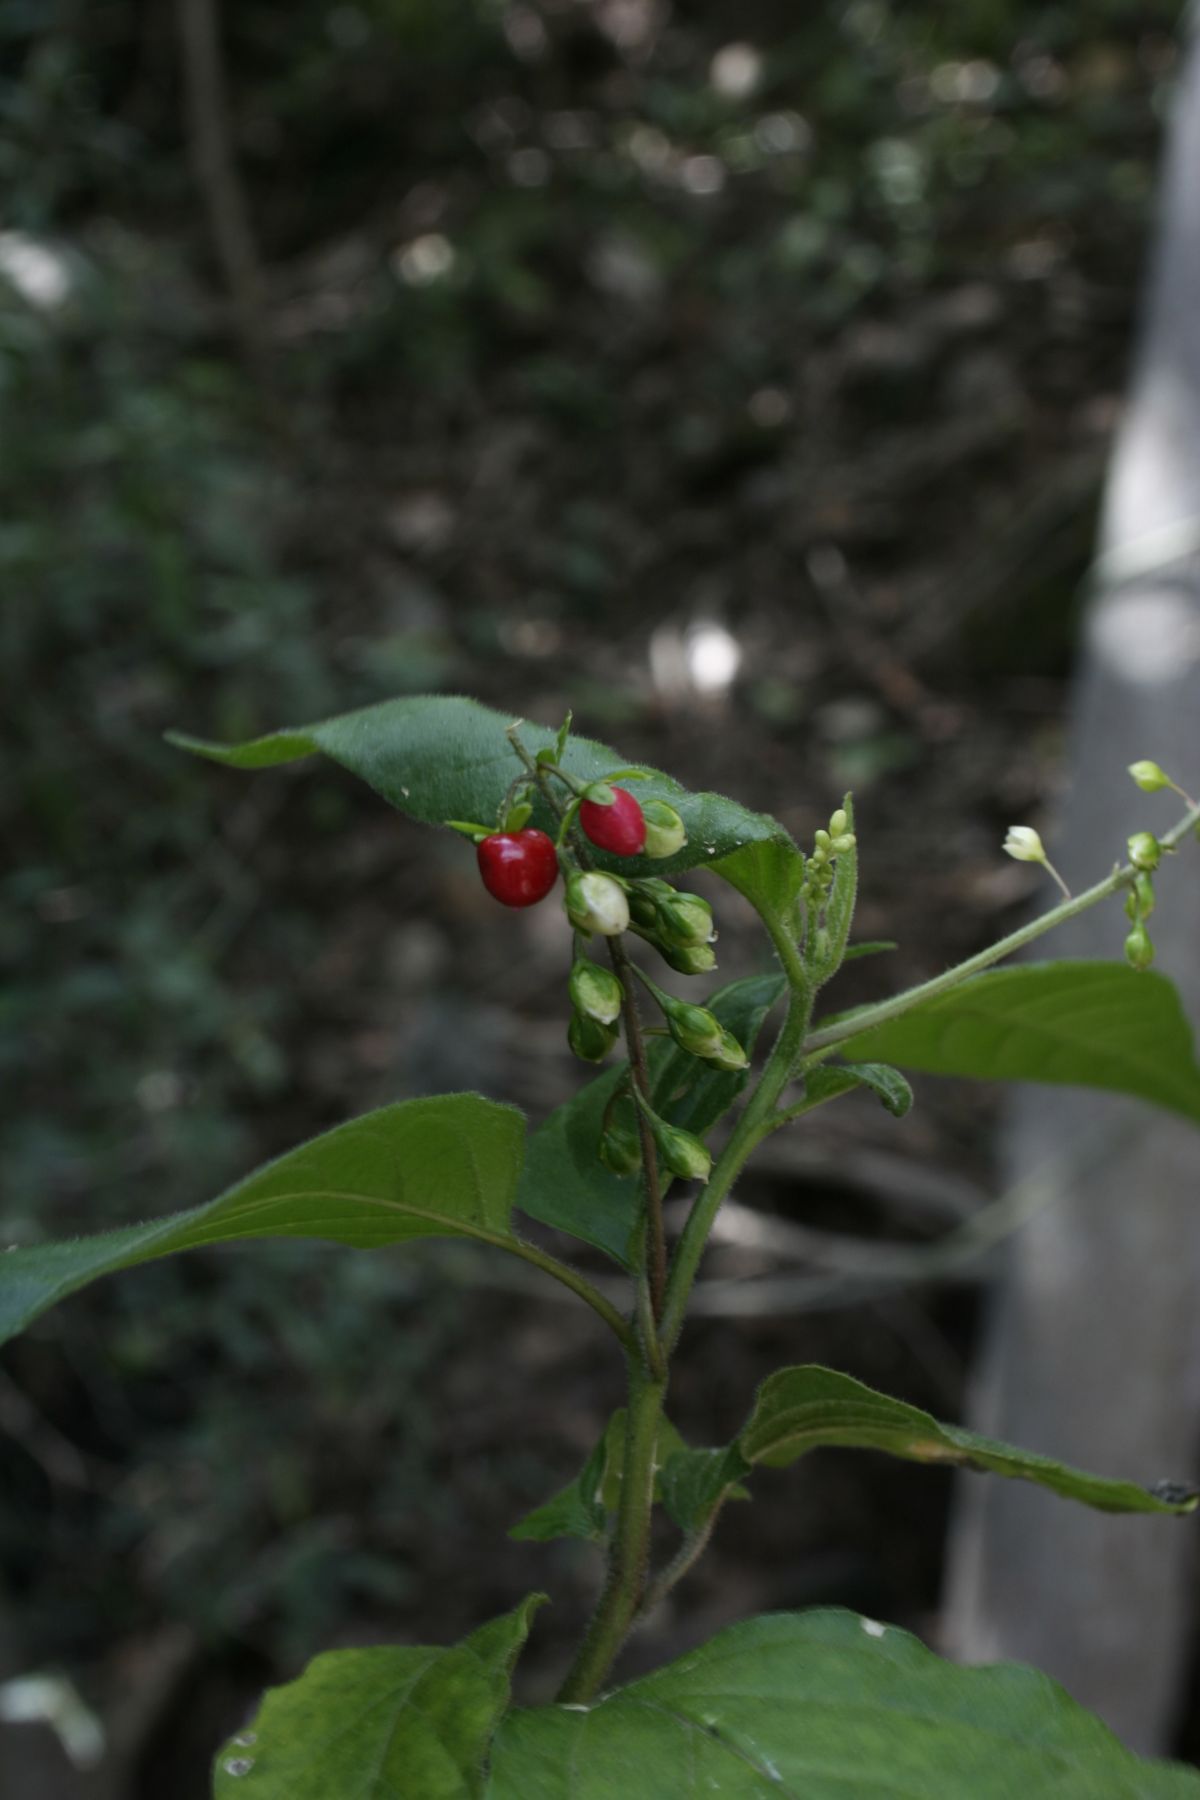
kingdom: Plantae
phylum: Tracheophyta
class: Magnoliopsida
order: Caryophyllales
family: Phytolaccaceae
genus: Rivina
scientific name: Rivina humilis
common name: Rougeplant
